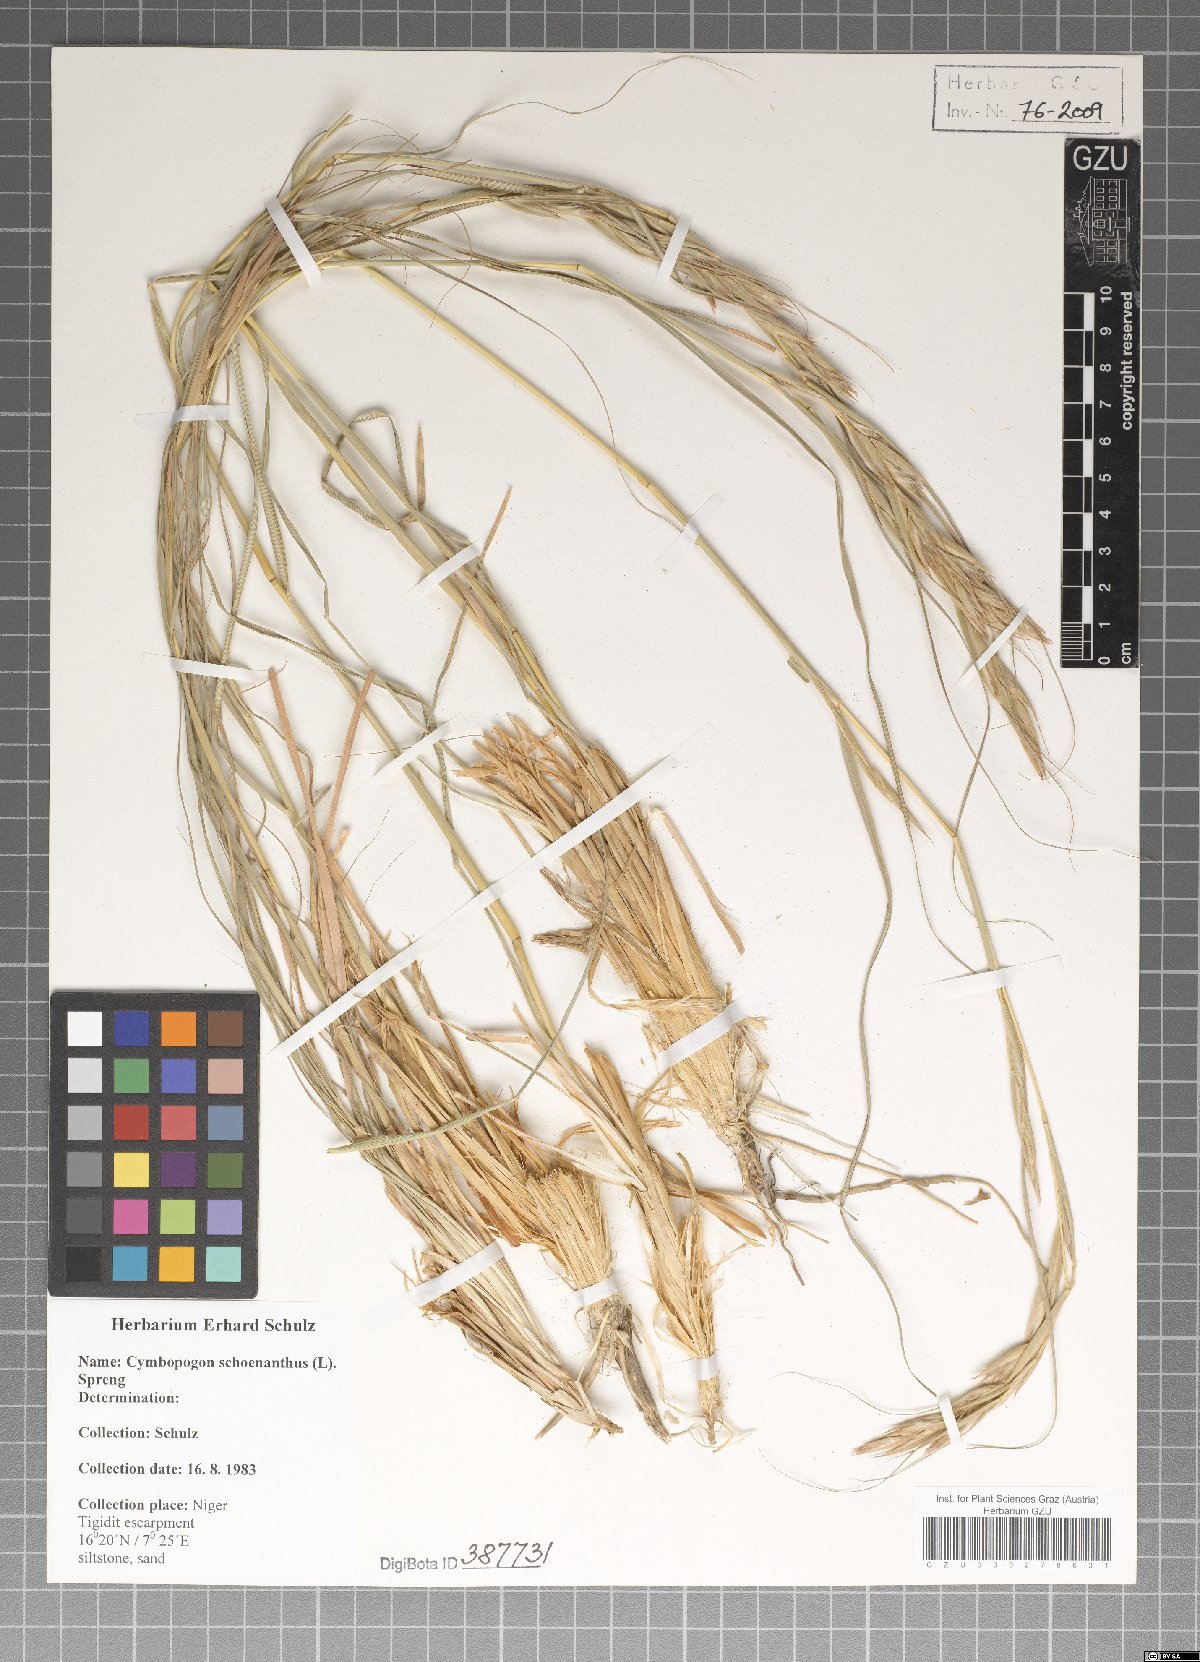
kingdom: Plantae
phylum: Tracheophyta
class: Liliopsida
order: Poales
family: Poaceae
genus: Cymbopogon
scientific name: Cymbopogon schoenanthus
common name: Geranium grass
